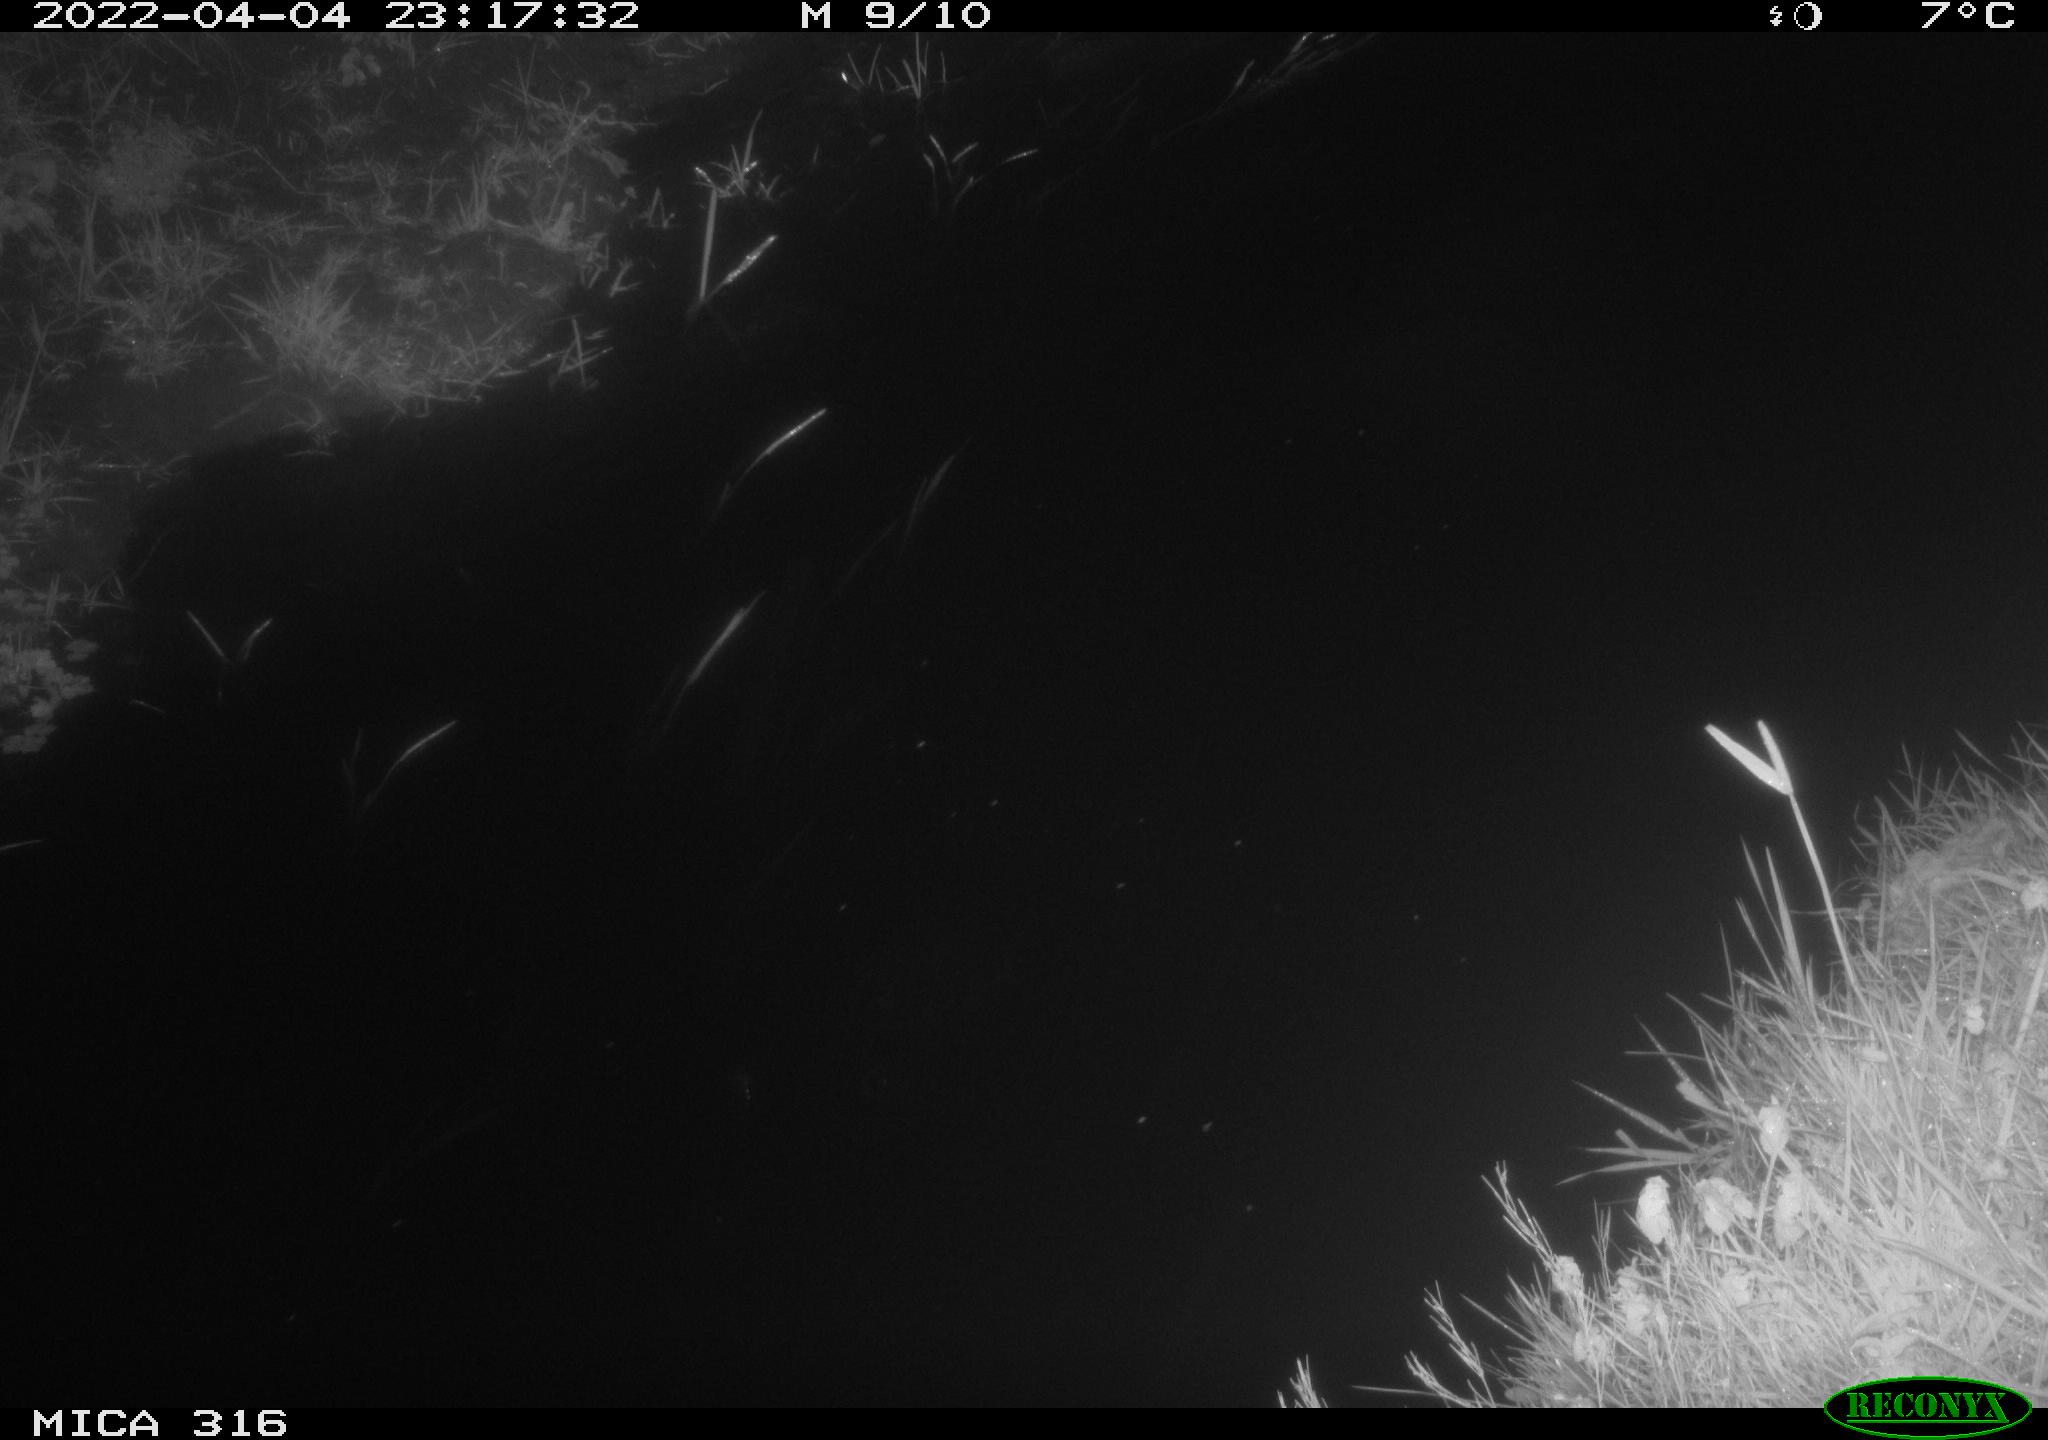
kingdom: Animalia
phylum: Chordata
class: Aves
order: Anseriformes
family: Anatidae
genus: Anas
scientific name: Anas platyrhynchos
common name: Mallard
